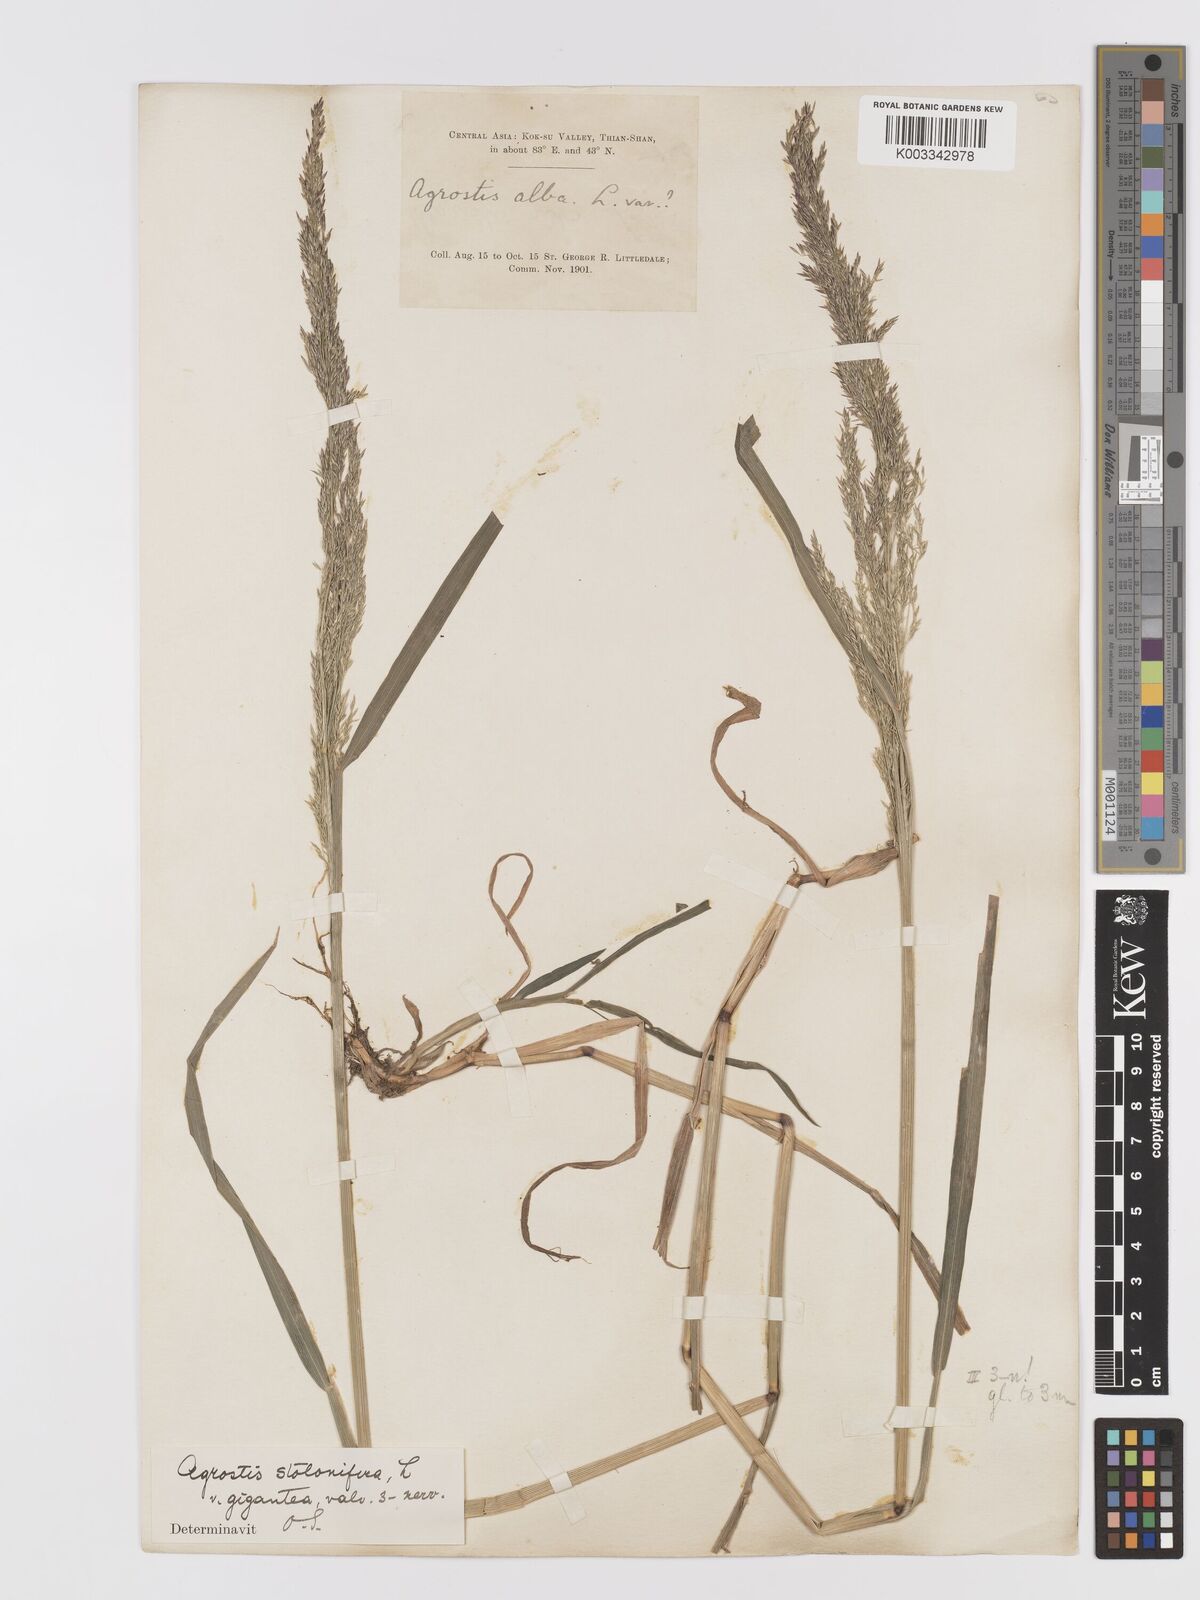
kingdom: Plantae
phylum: Tracheophyta
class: Liliopsida
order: Poales
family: Poaceae
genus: Agrostis
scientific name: Agrostis stolonifera
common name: Creeping bentgrass
